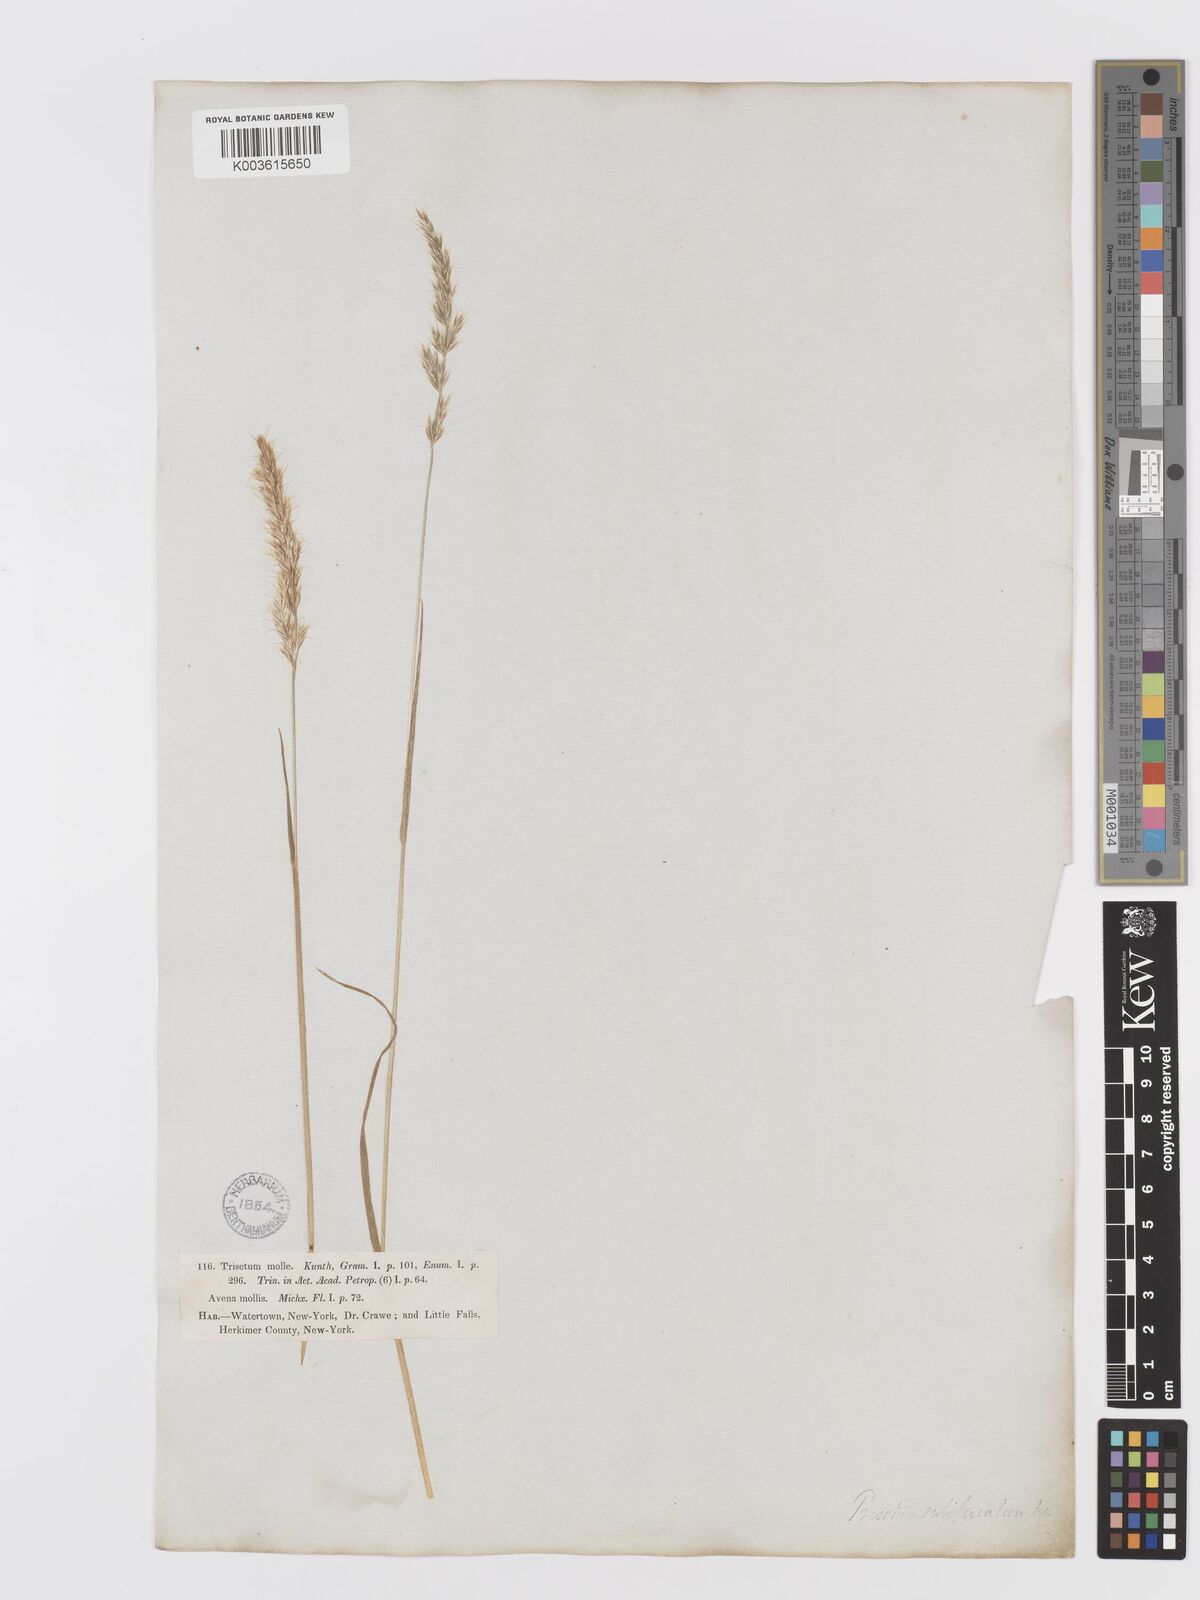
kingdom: Plantae
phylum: Tracheophyta
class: Liliopsida
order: Poales
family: Poaceae
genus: Koeleria
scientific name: Koeleria spicata
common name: Mountain trisetum
